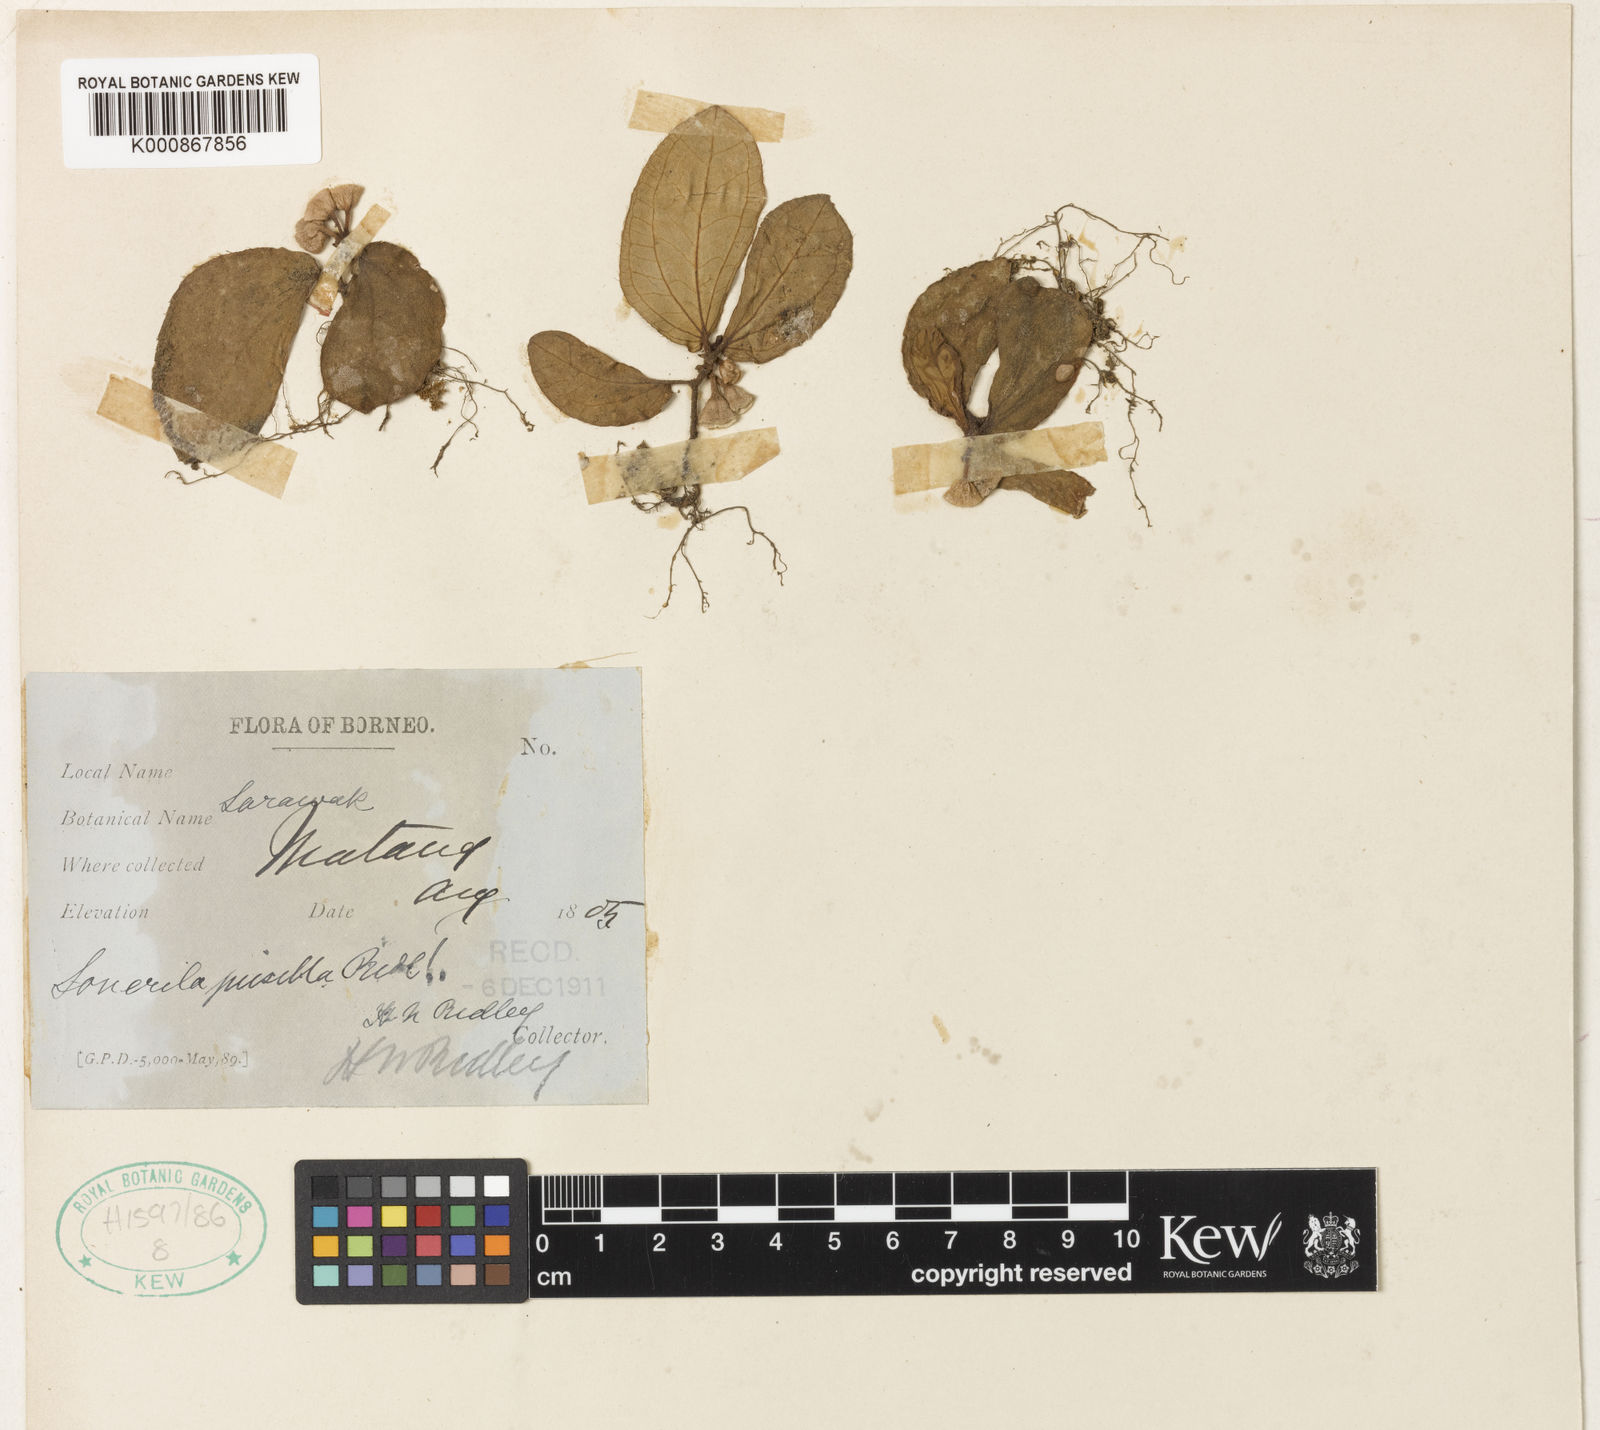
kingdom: Plantae
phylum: Tracheophyta
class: Magnoliopsida
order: Myrtales
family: Melastomataceae
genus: Sonerila
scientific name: Sonerila pusilla
